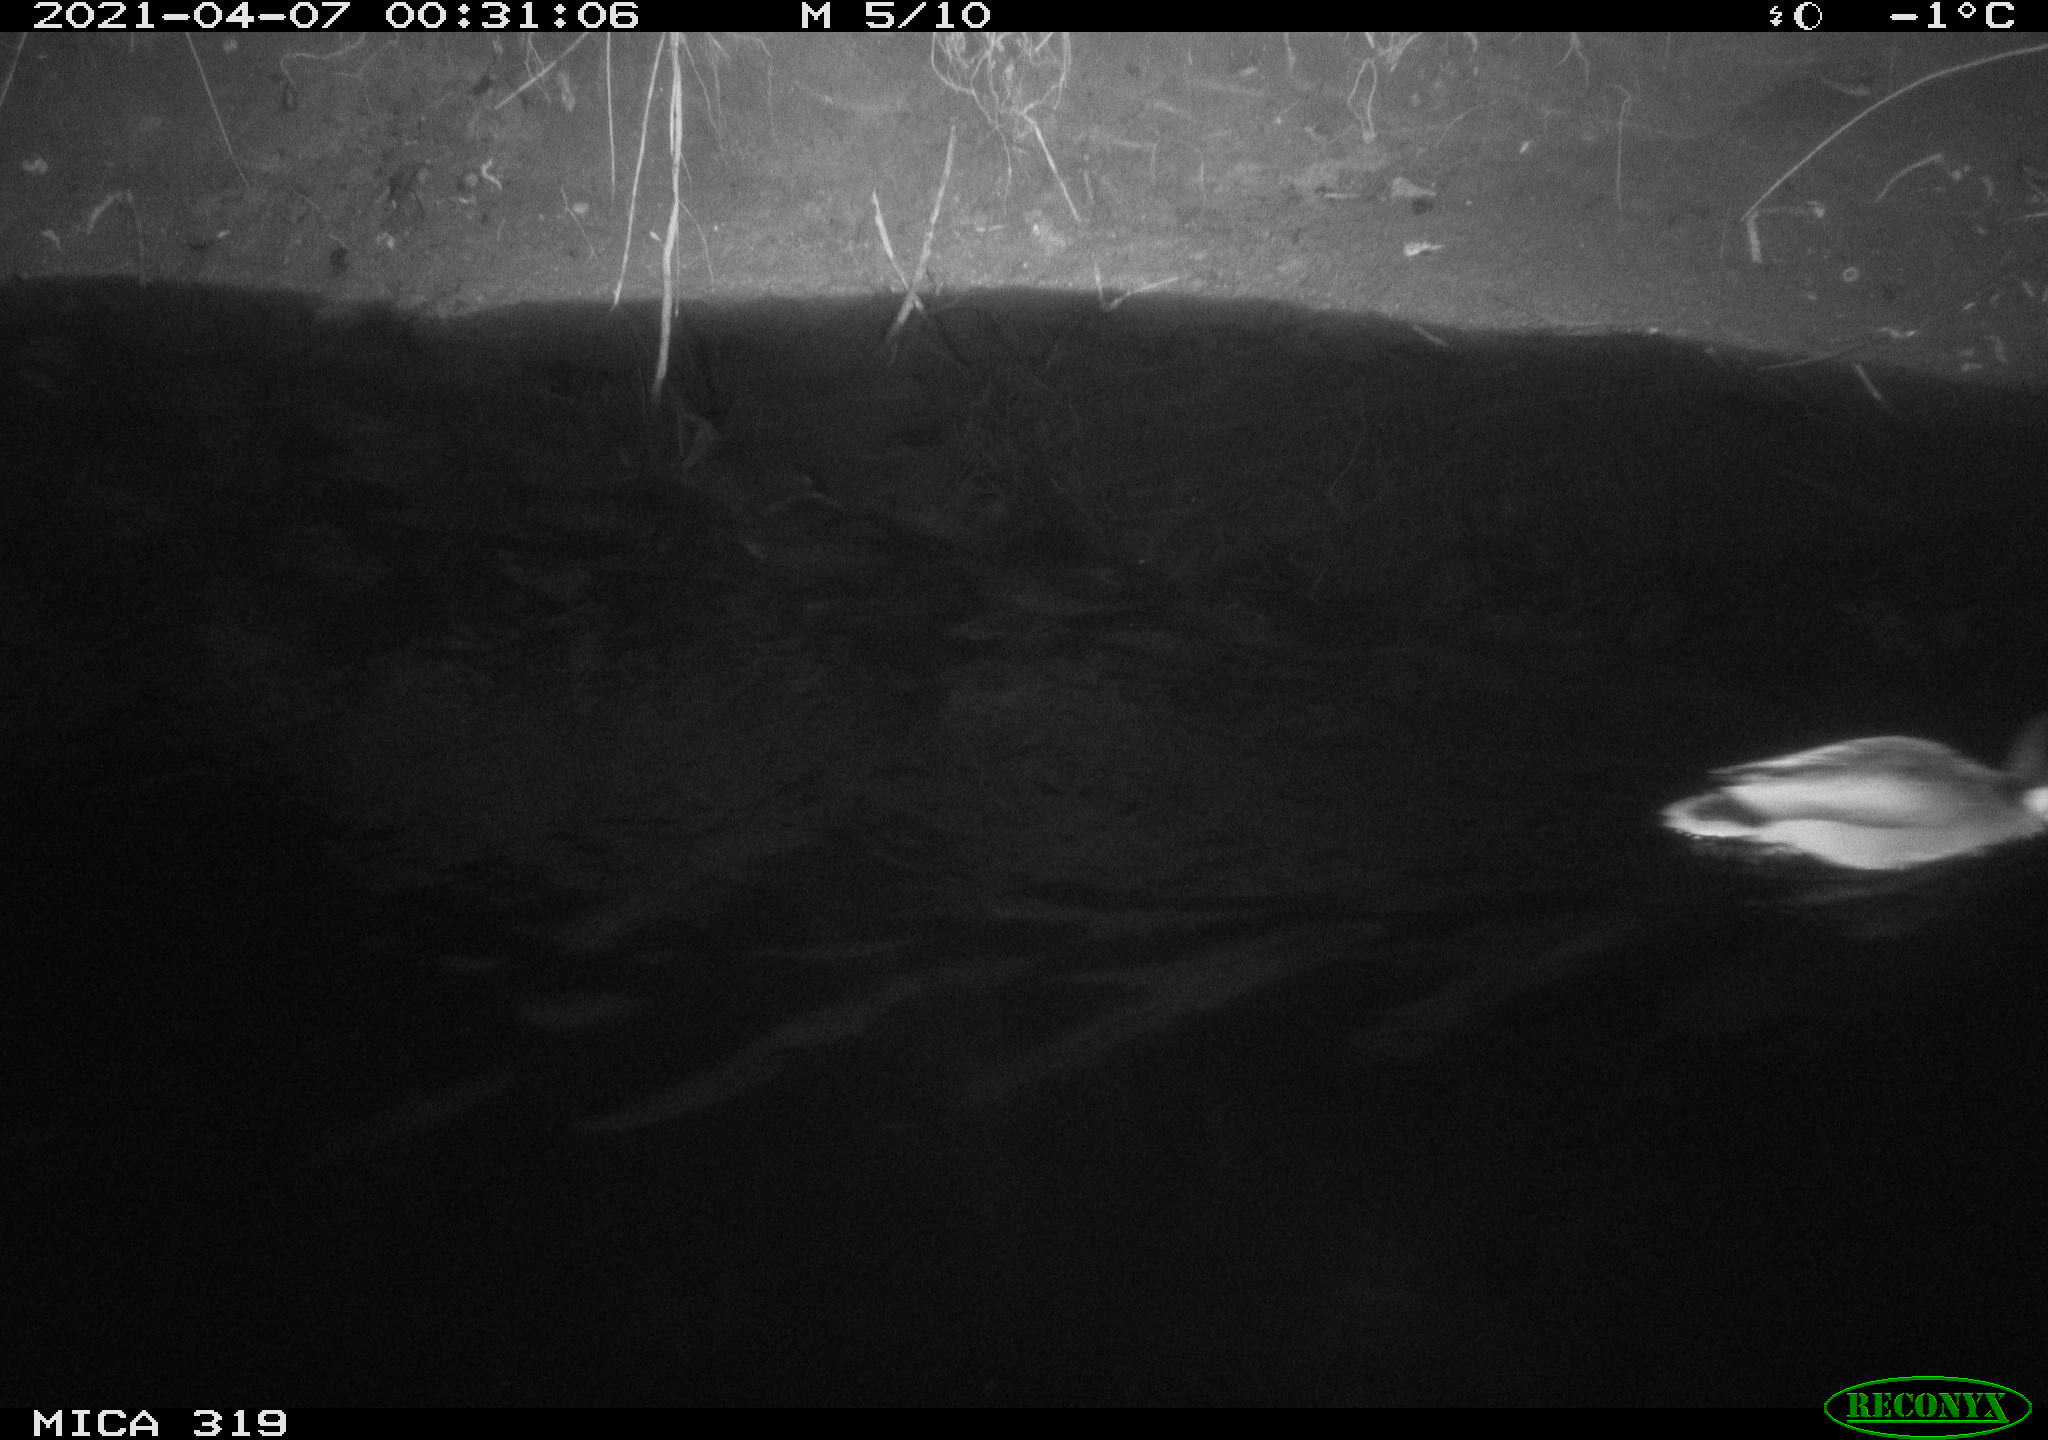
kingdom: Animalia
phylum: Chordata
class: Aves
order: Anseriformes
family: Anatidae
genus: Anas
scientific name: Anas platyrhynchos
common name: Mallard
